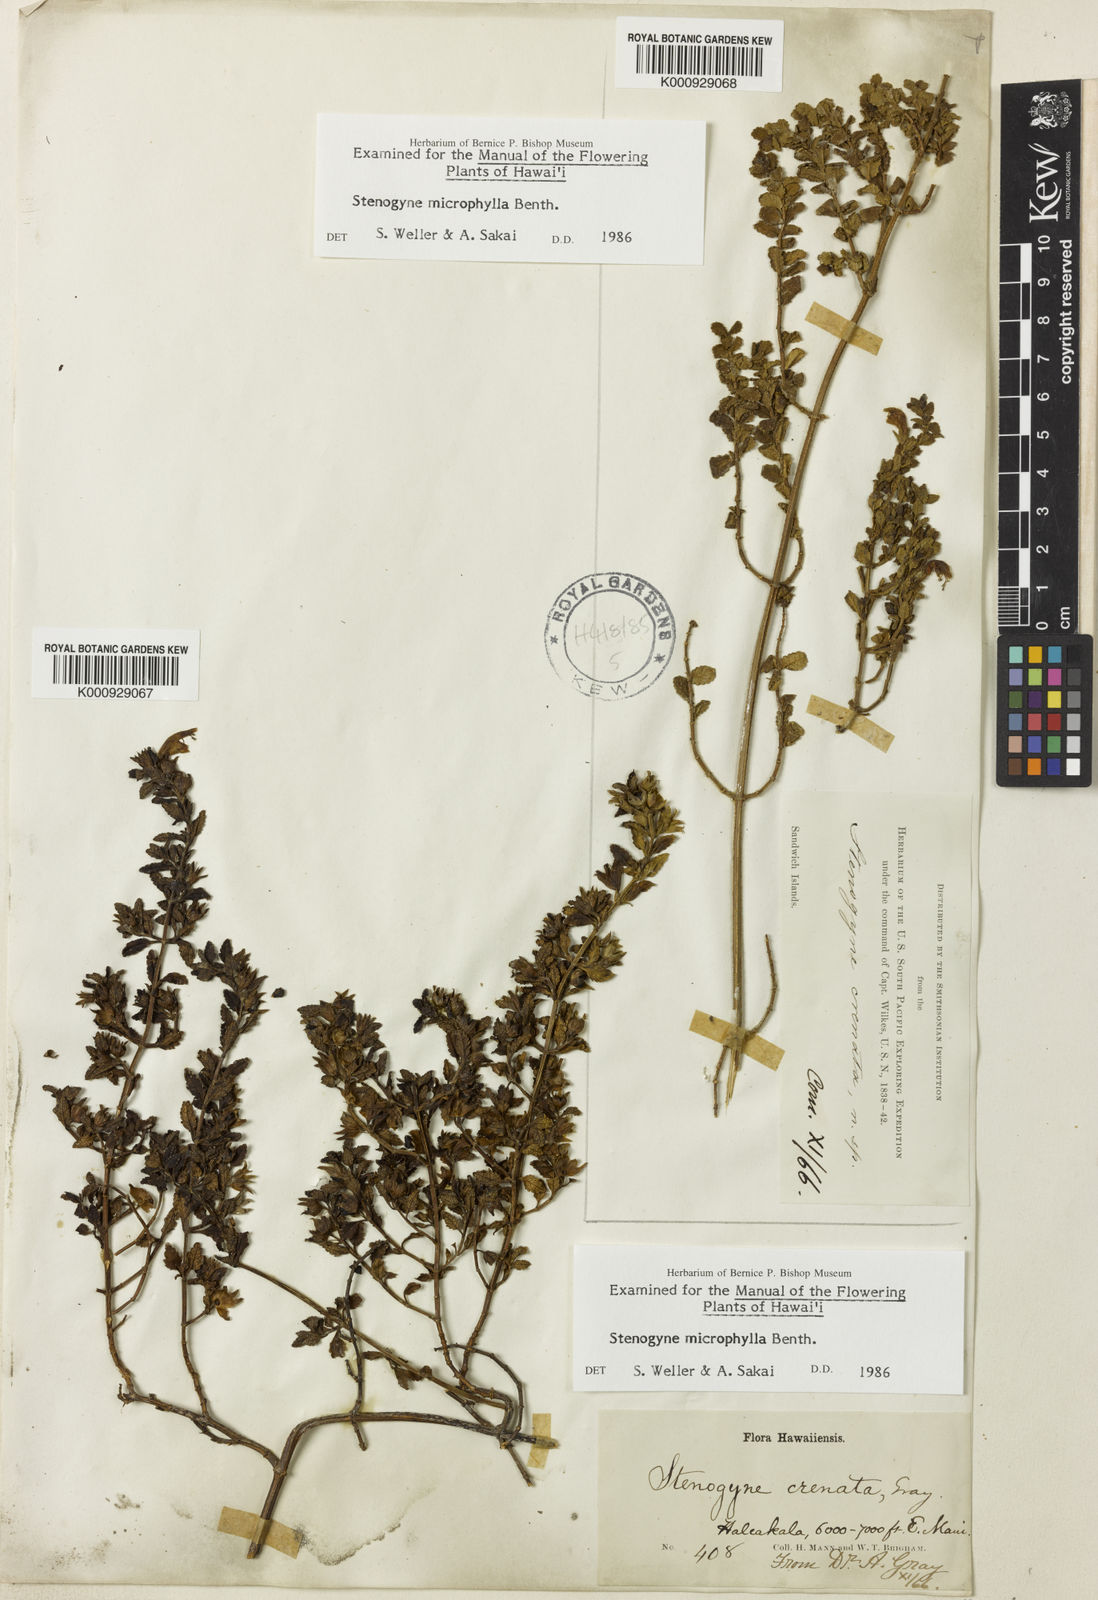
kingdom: Plantae
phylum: Tracheophyta
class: Magnoliopsida
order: Lamiales
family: Lamiaceae
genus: Stenogyne
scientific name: Stenogyne microphylla
